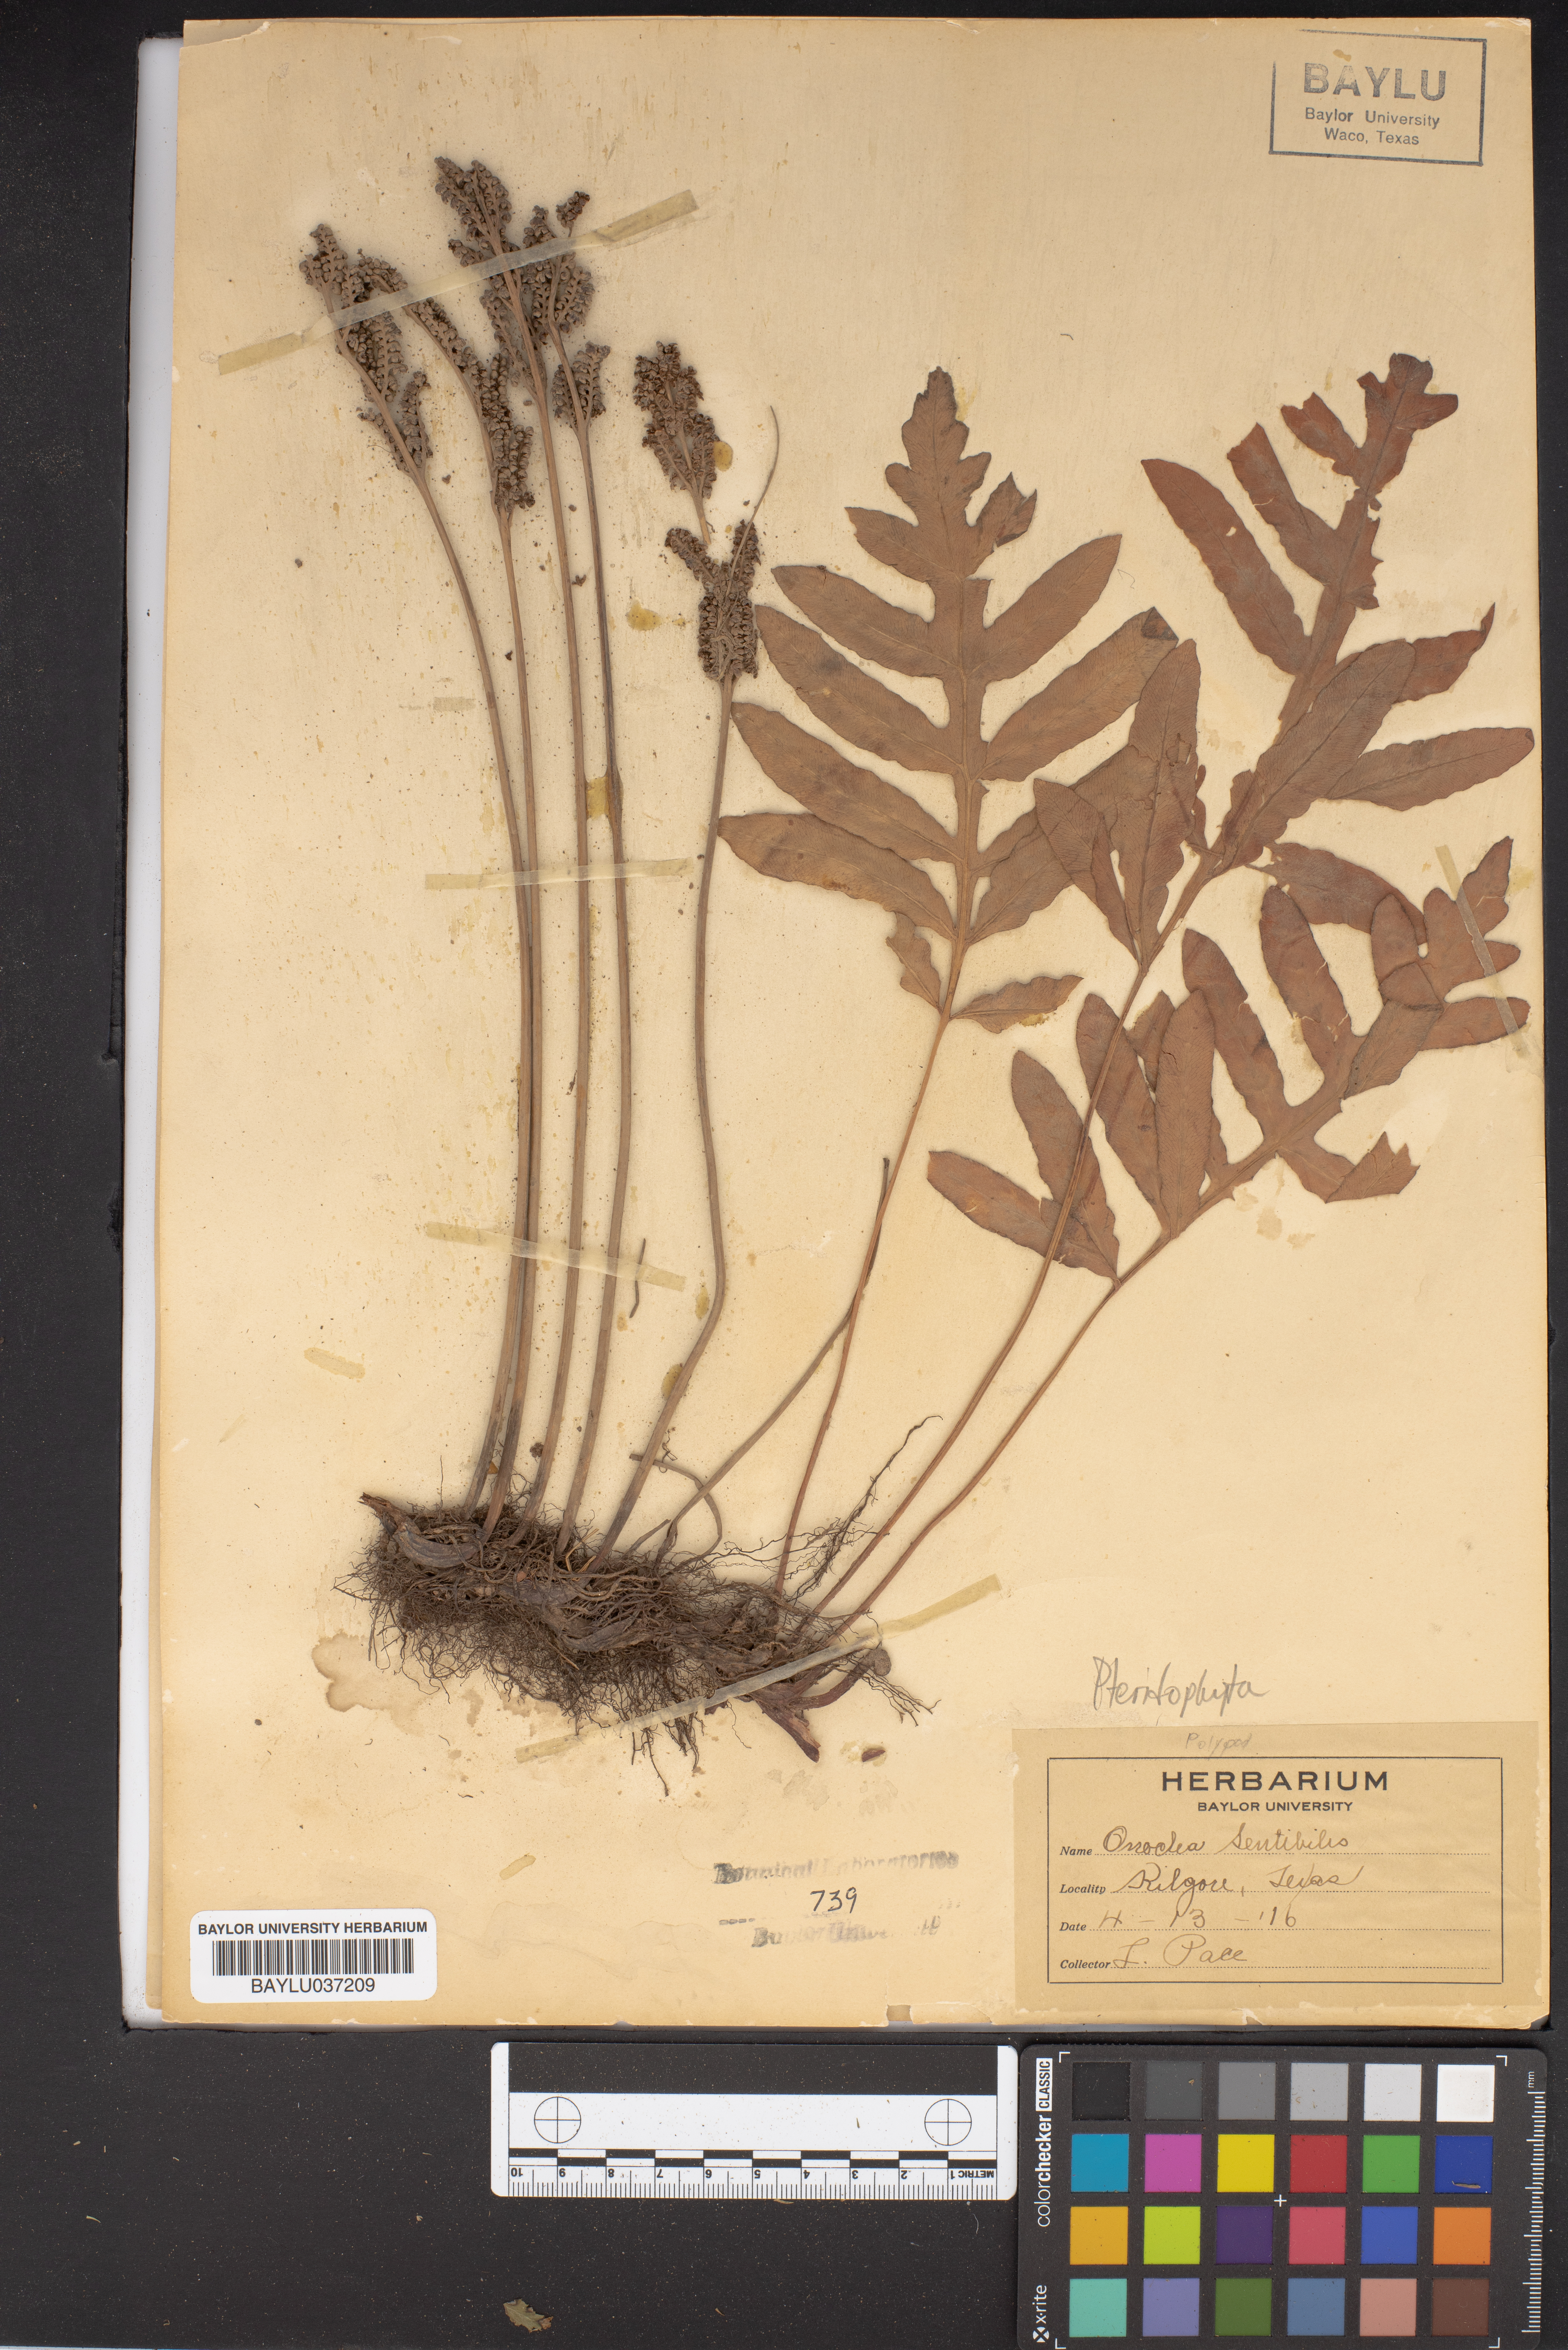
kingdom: Plantae
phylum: Tracheophyta
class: Polypodiopsida
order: Polypodiales
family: Onocleaceae
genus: Onoclea
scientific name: Onoclea sensibilis
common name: Sensitive fern
